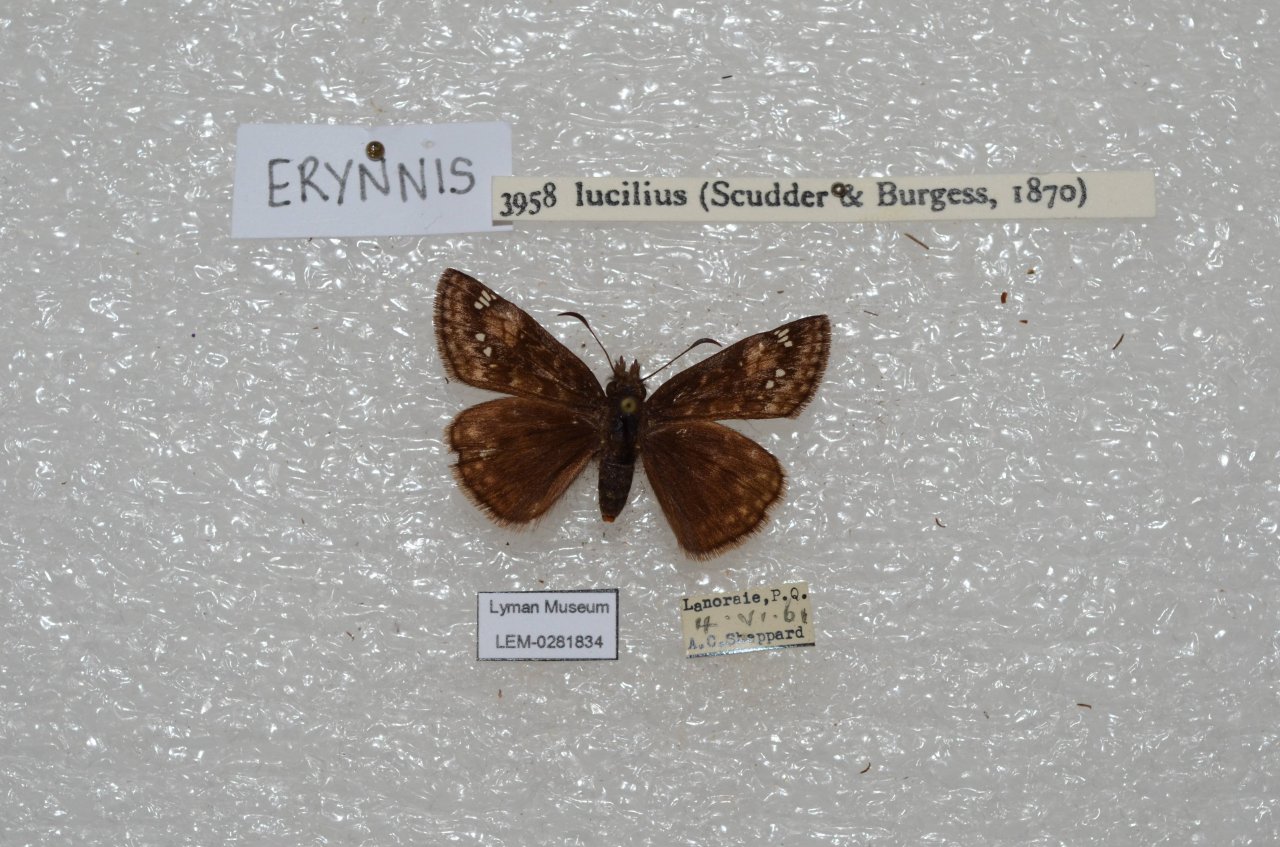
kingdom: Animalia
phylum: Arthropoda
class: Insecta
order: Lepidoptera
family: Hesperiidae
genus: Gesta
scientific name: Gesta
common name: Columbine Duskywing
